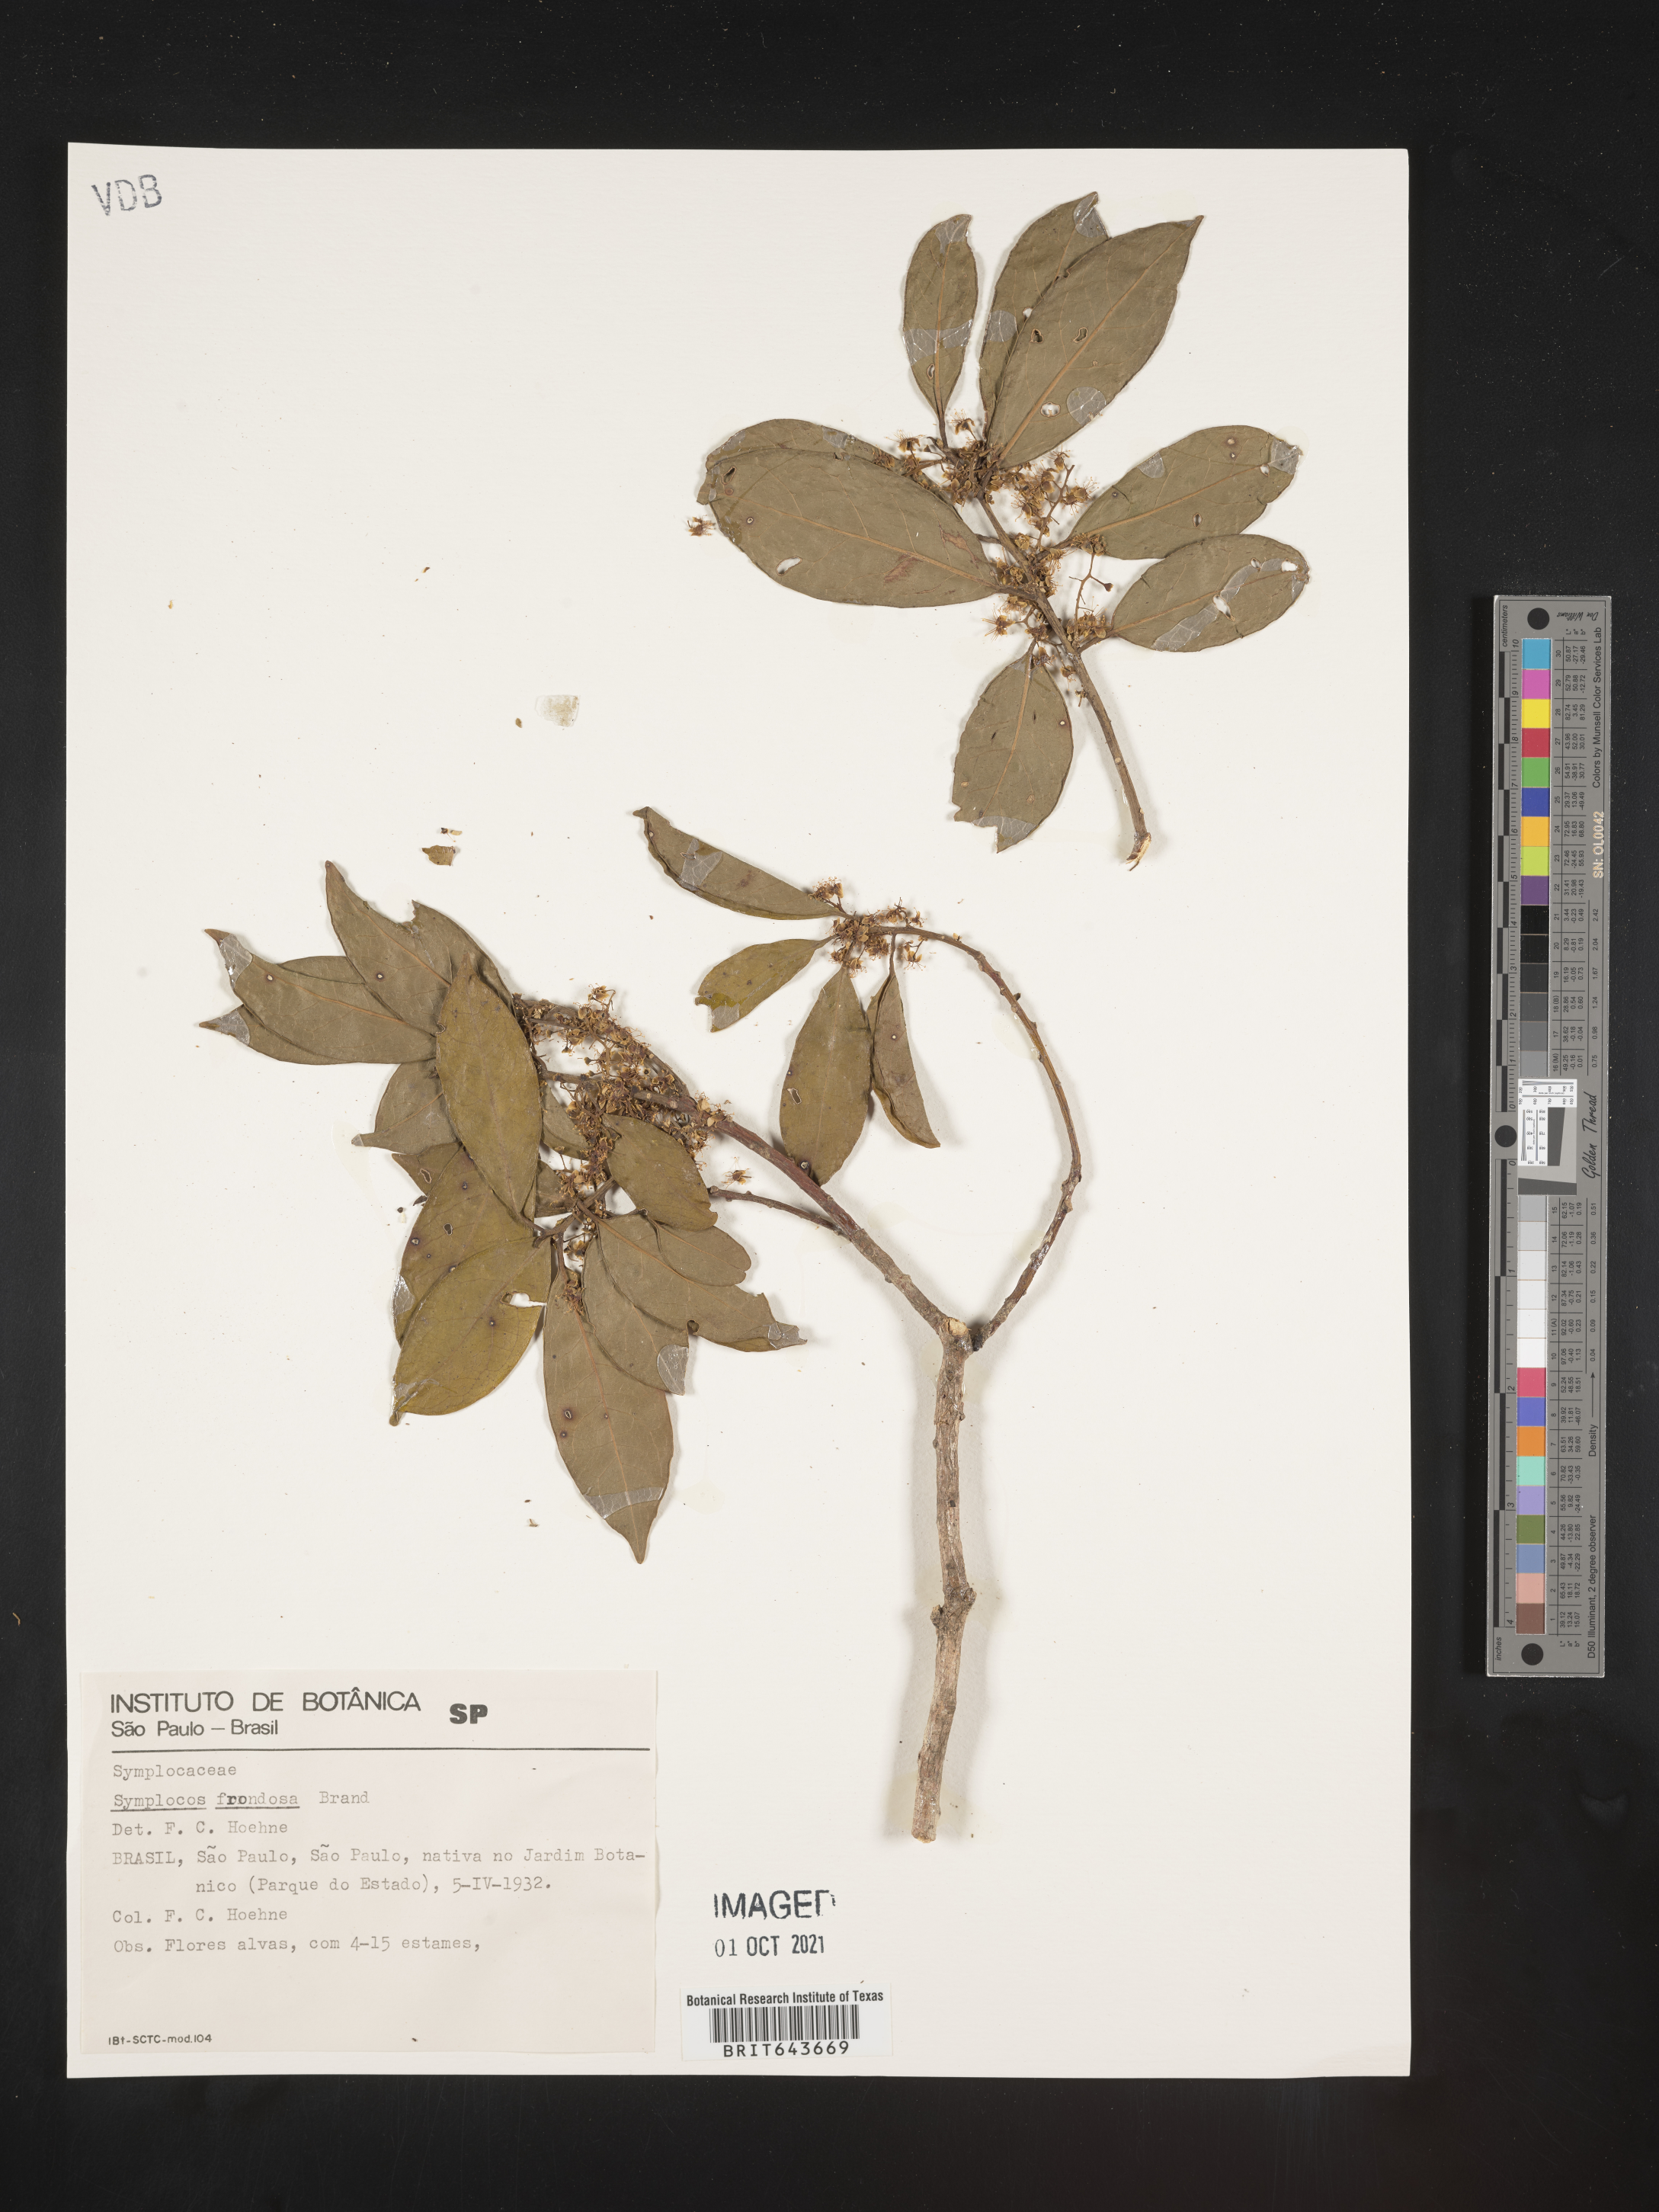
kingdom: Plantae
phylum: Tracheophyta
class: Magnoliopsida
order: Ericales
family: Symplocaceae
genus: Symplocos
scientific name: Symplocos
